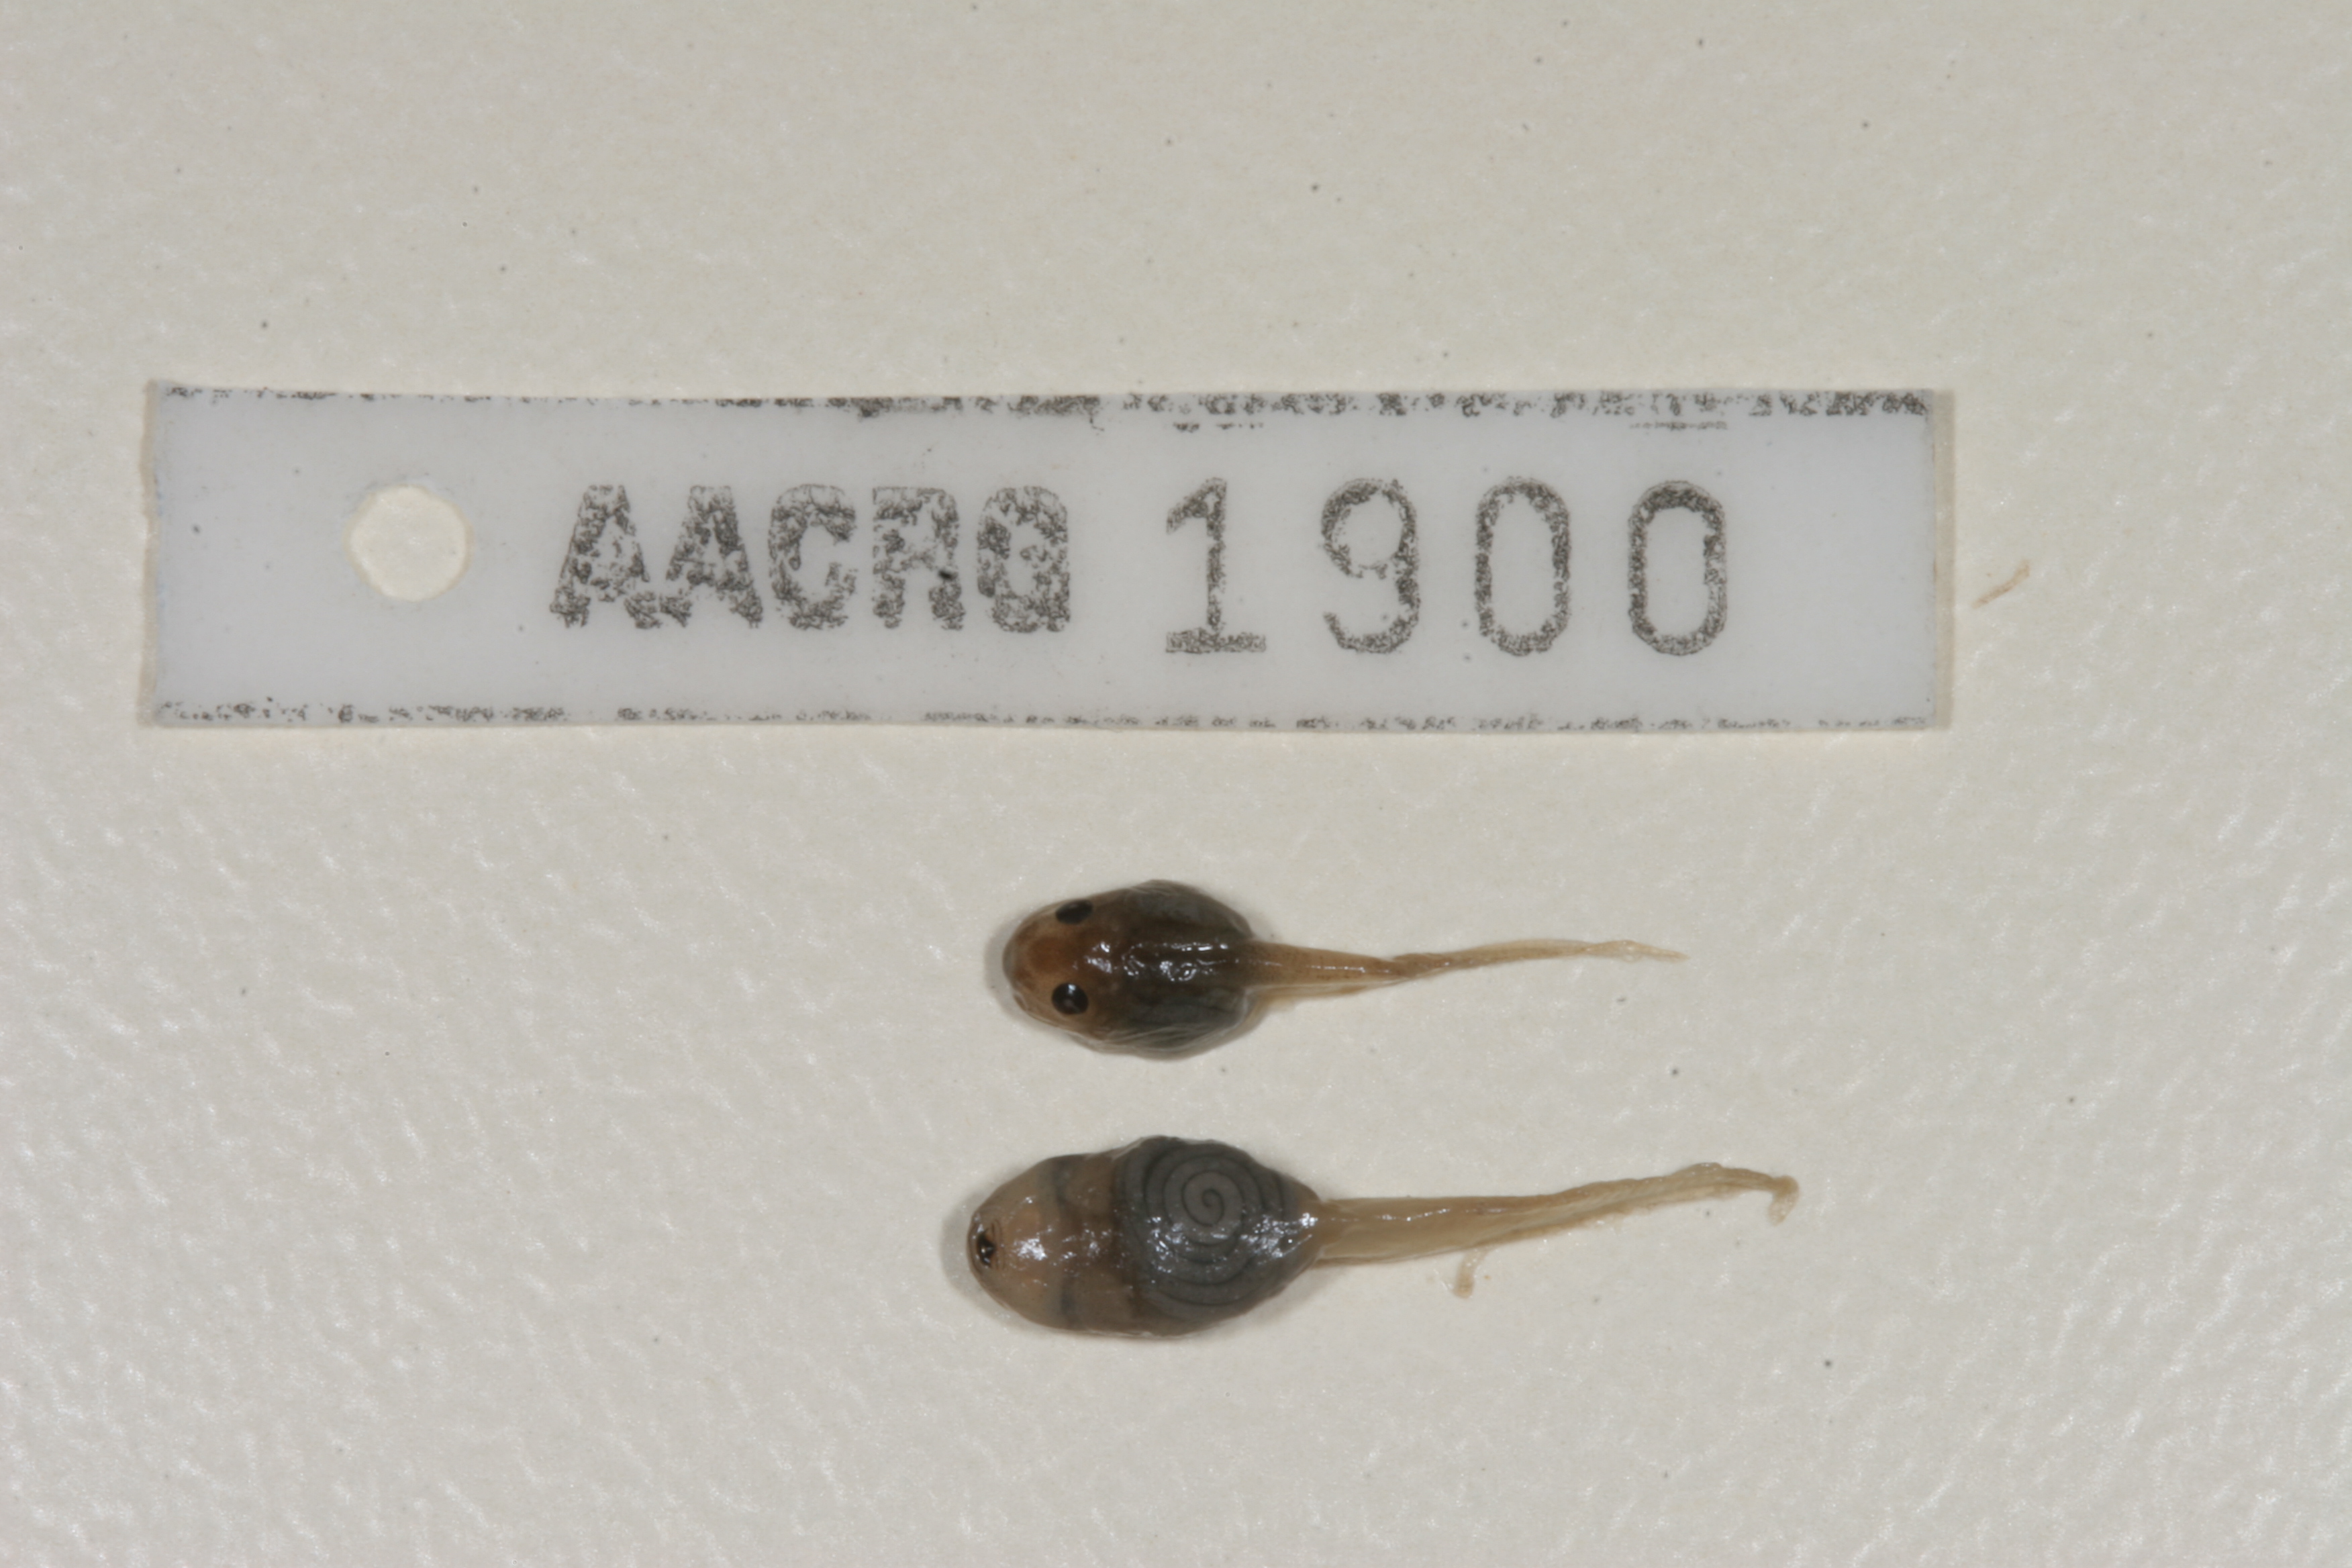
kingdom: Animalia
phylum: Chordata
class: Amphibia
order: Anura
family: Ptychadenidae
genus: Ptychadena
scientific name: Ptychadena mascareniensis
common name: Mascarene grass frog
